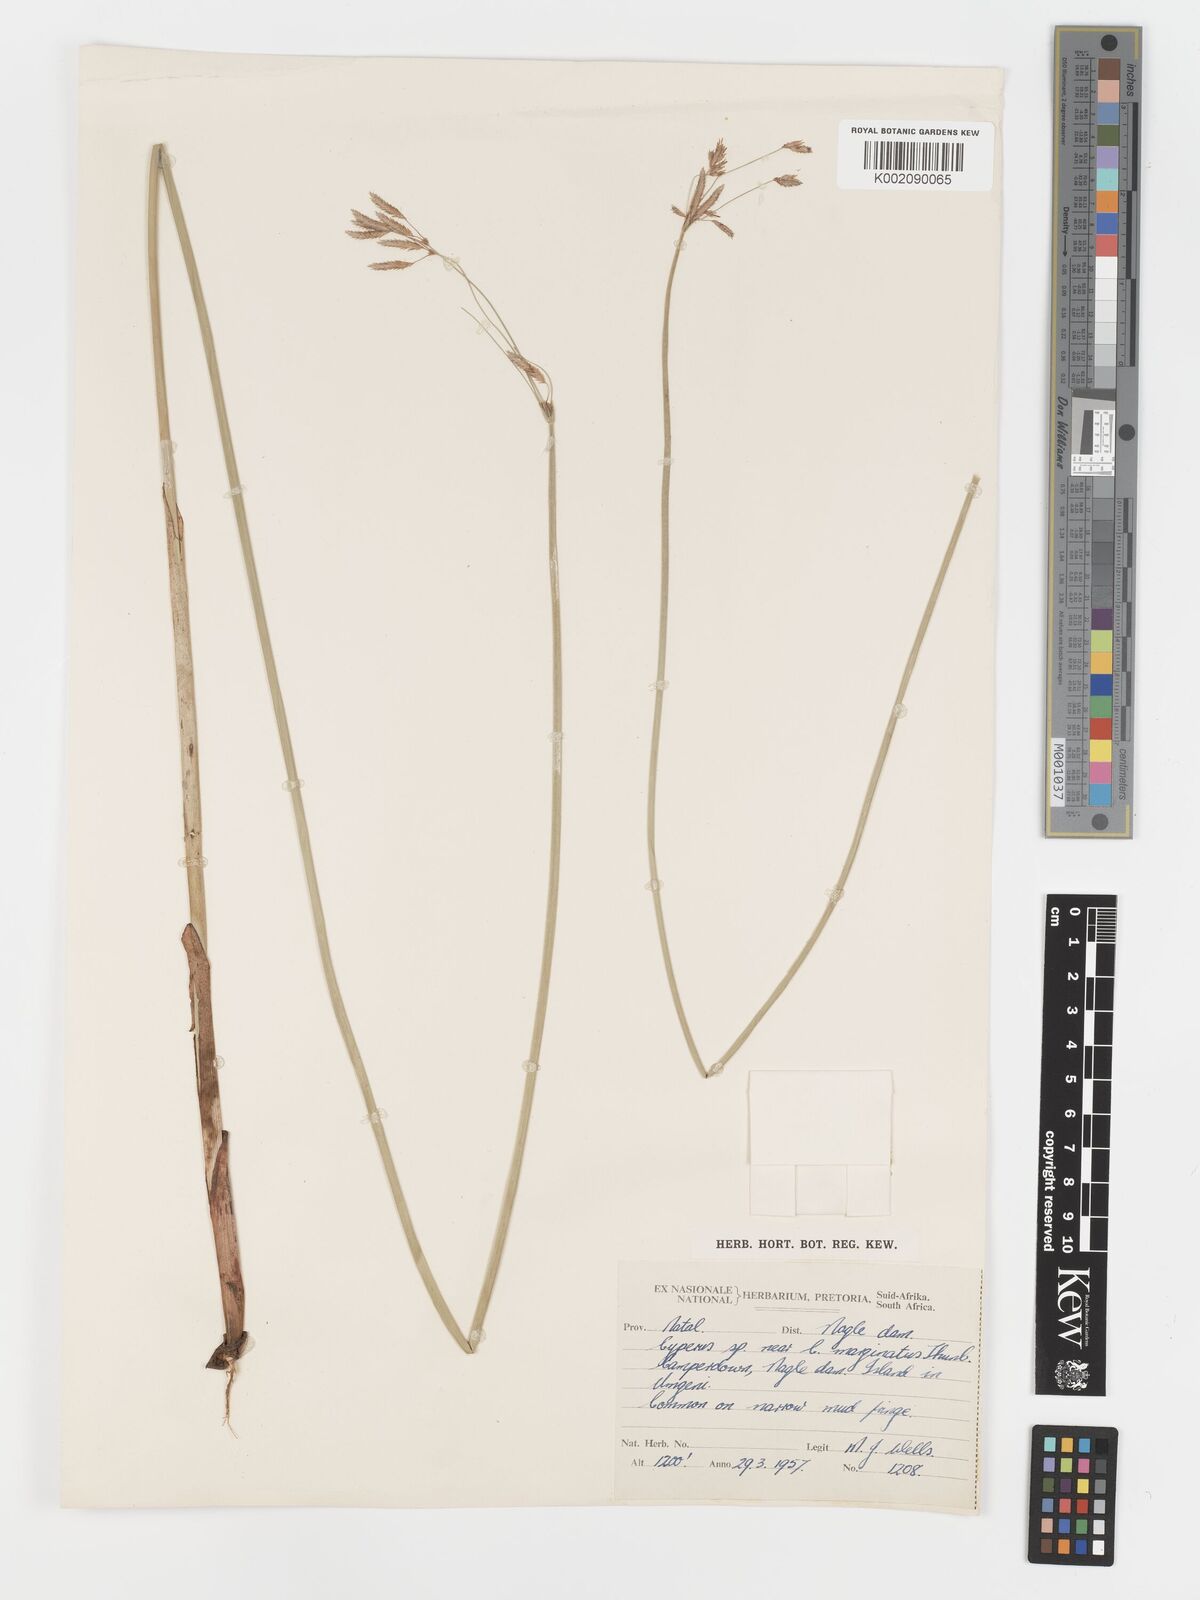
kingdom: Plantae
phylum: Tracheophyta
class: Liliopsida
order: Poales
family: Cyperaceae
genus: Cyperus
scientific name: Cyperus marginatus
